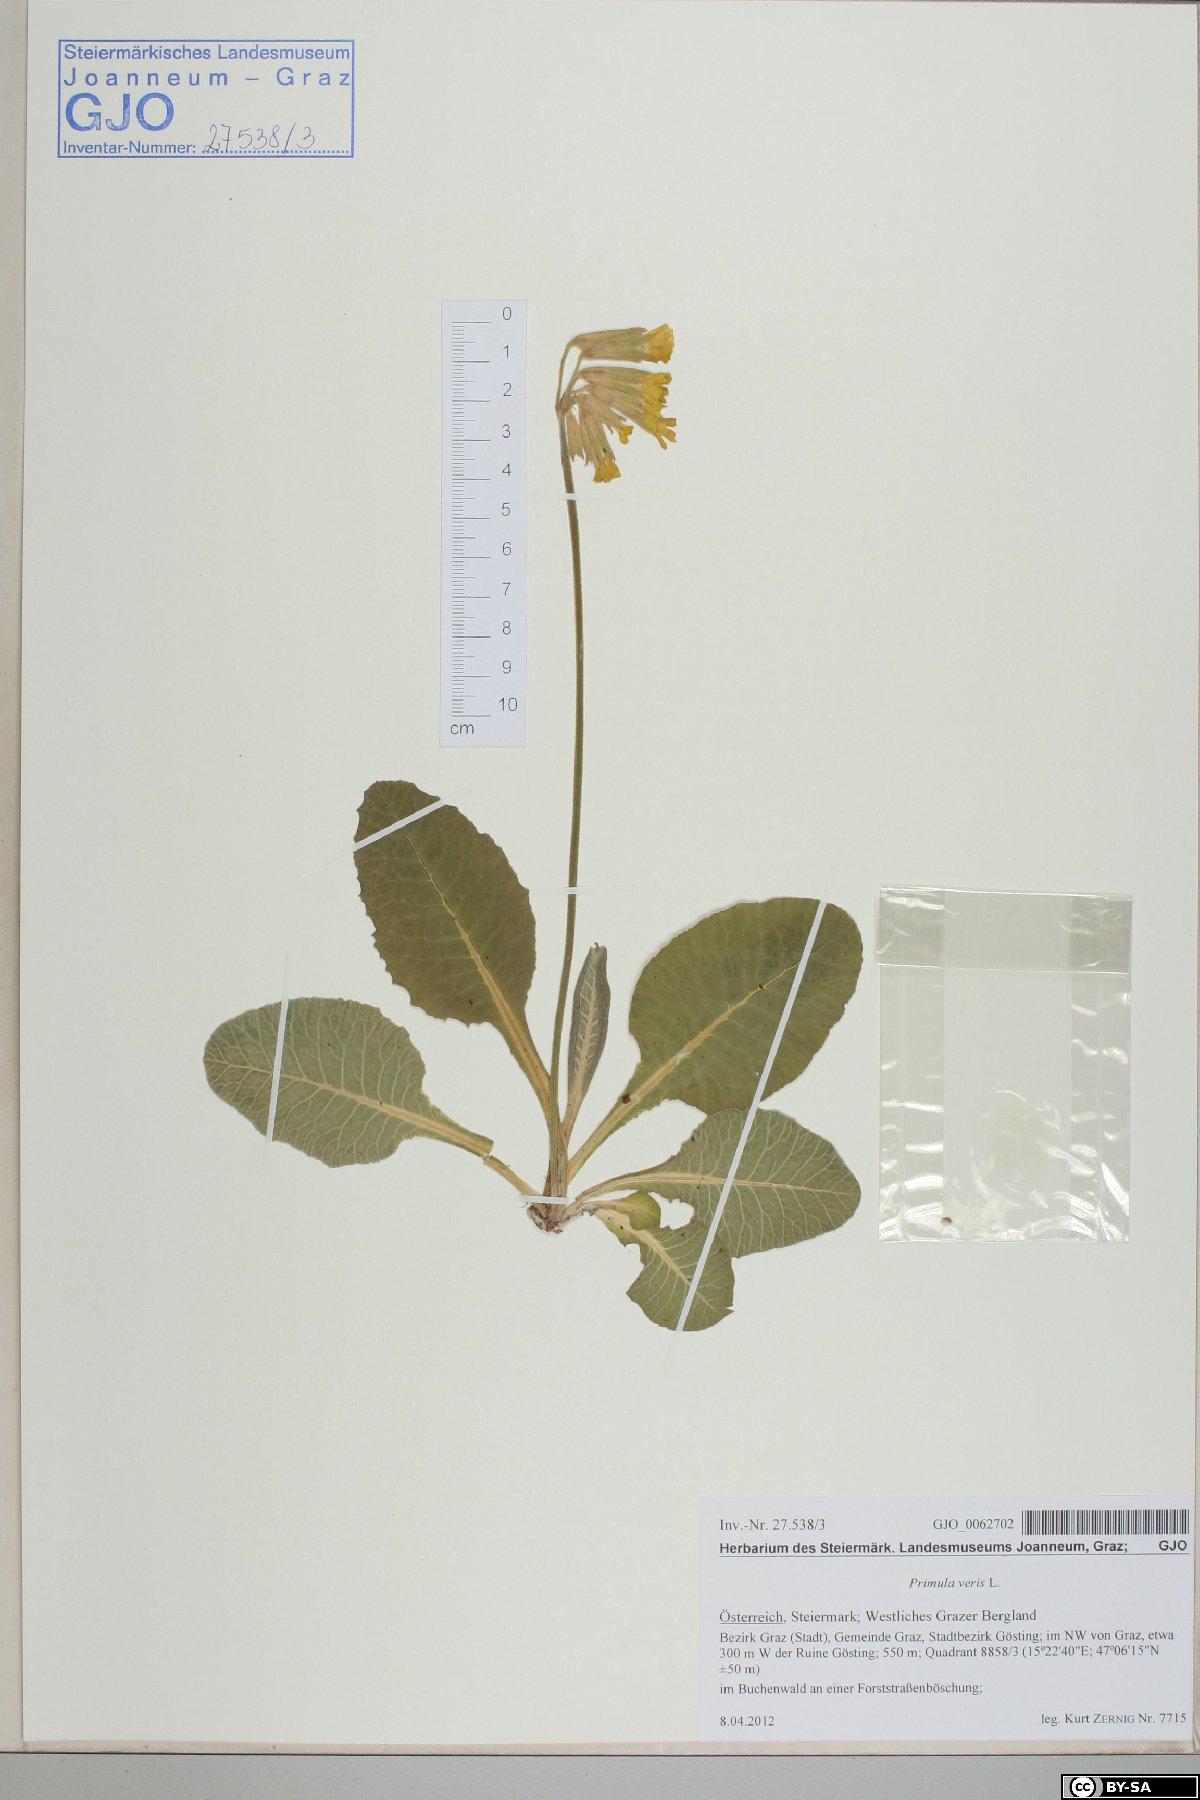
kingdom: Plantae
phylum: Tracheophyta
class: Magnoliopsida
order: Ericales
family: Primulaceae
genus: Primula
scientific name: Primula veris
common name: Cowslip
